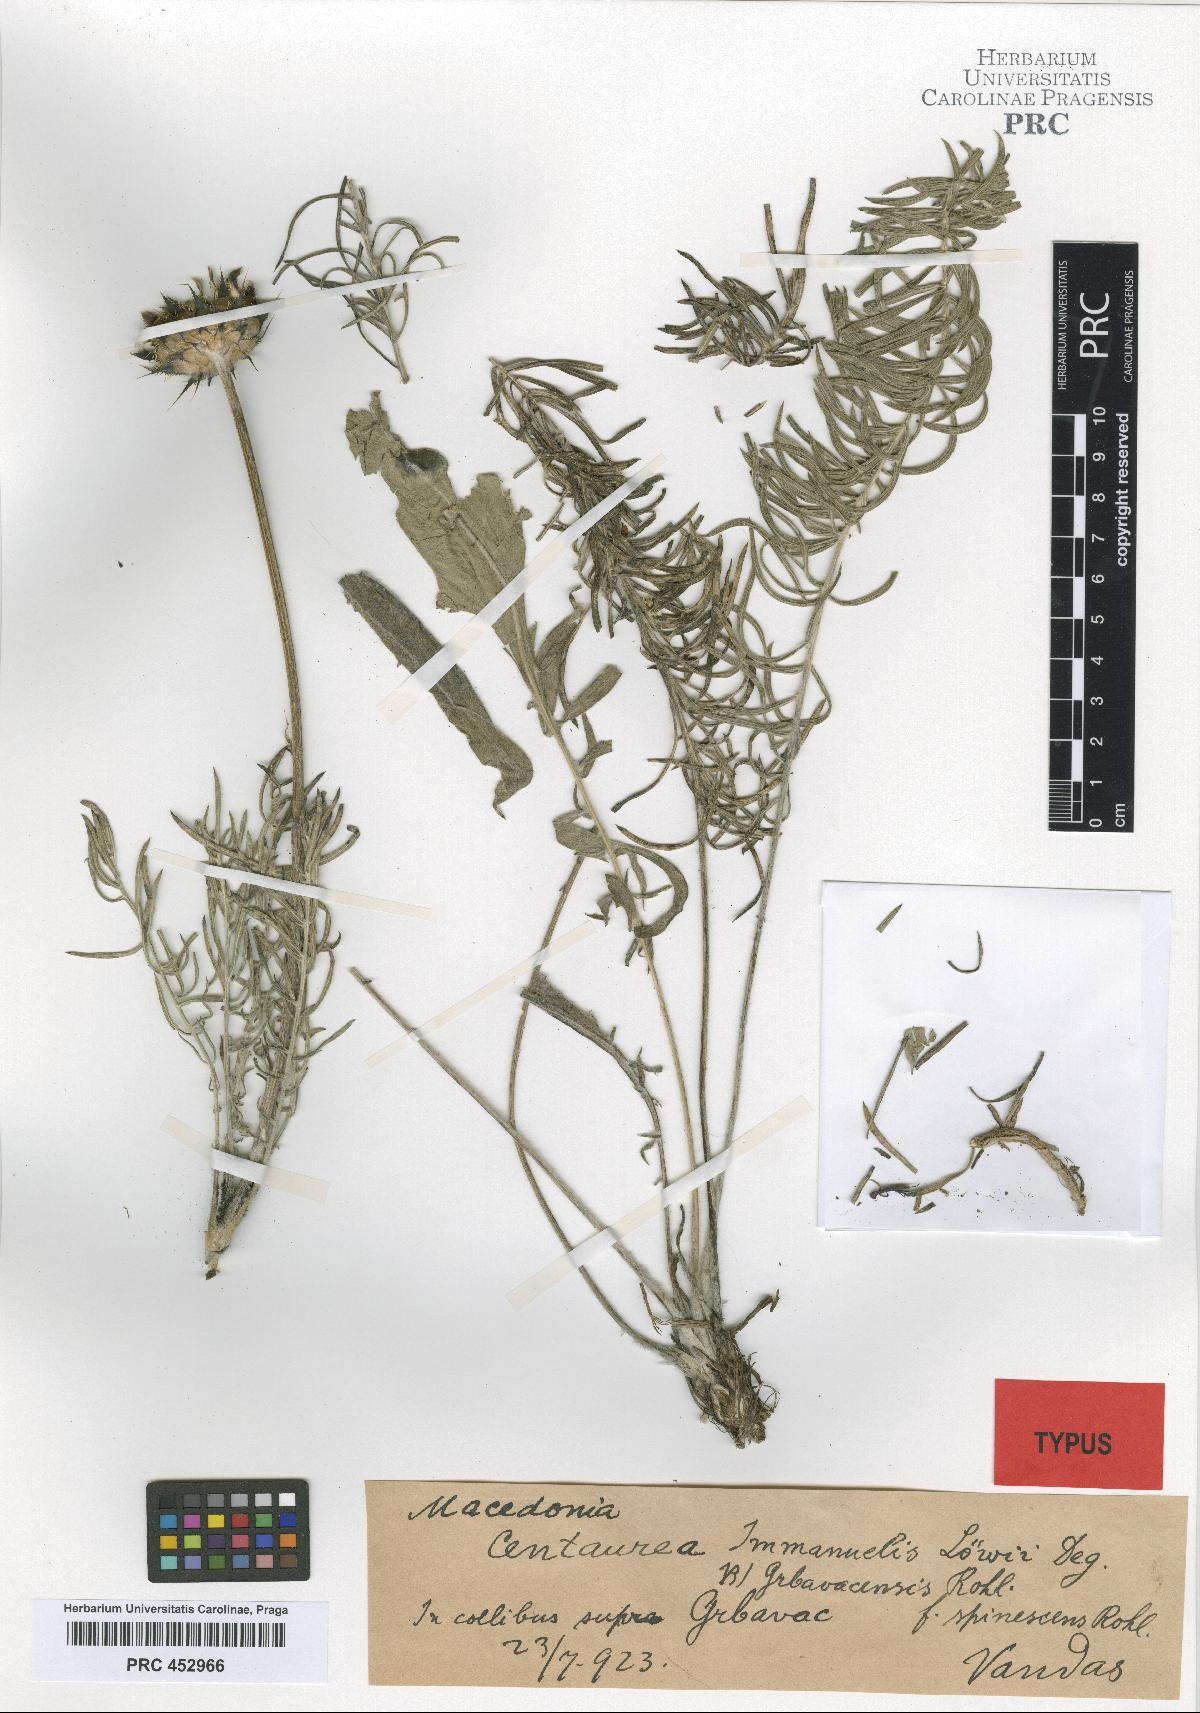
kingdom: Plantae
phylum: Tracheophyta
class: Magnoliopsida
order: Asterales
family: Asteraceae
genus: Centaurea
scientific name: Centaurea grbavacensis
